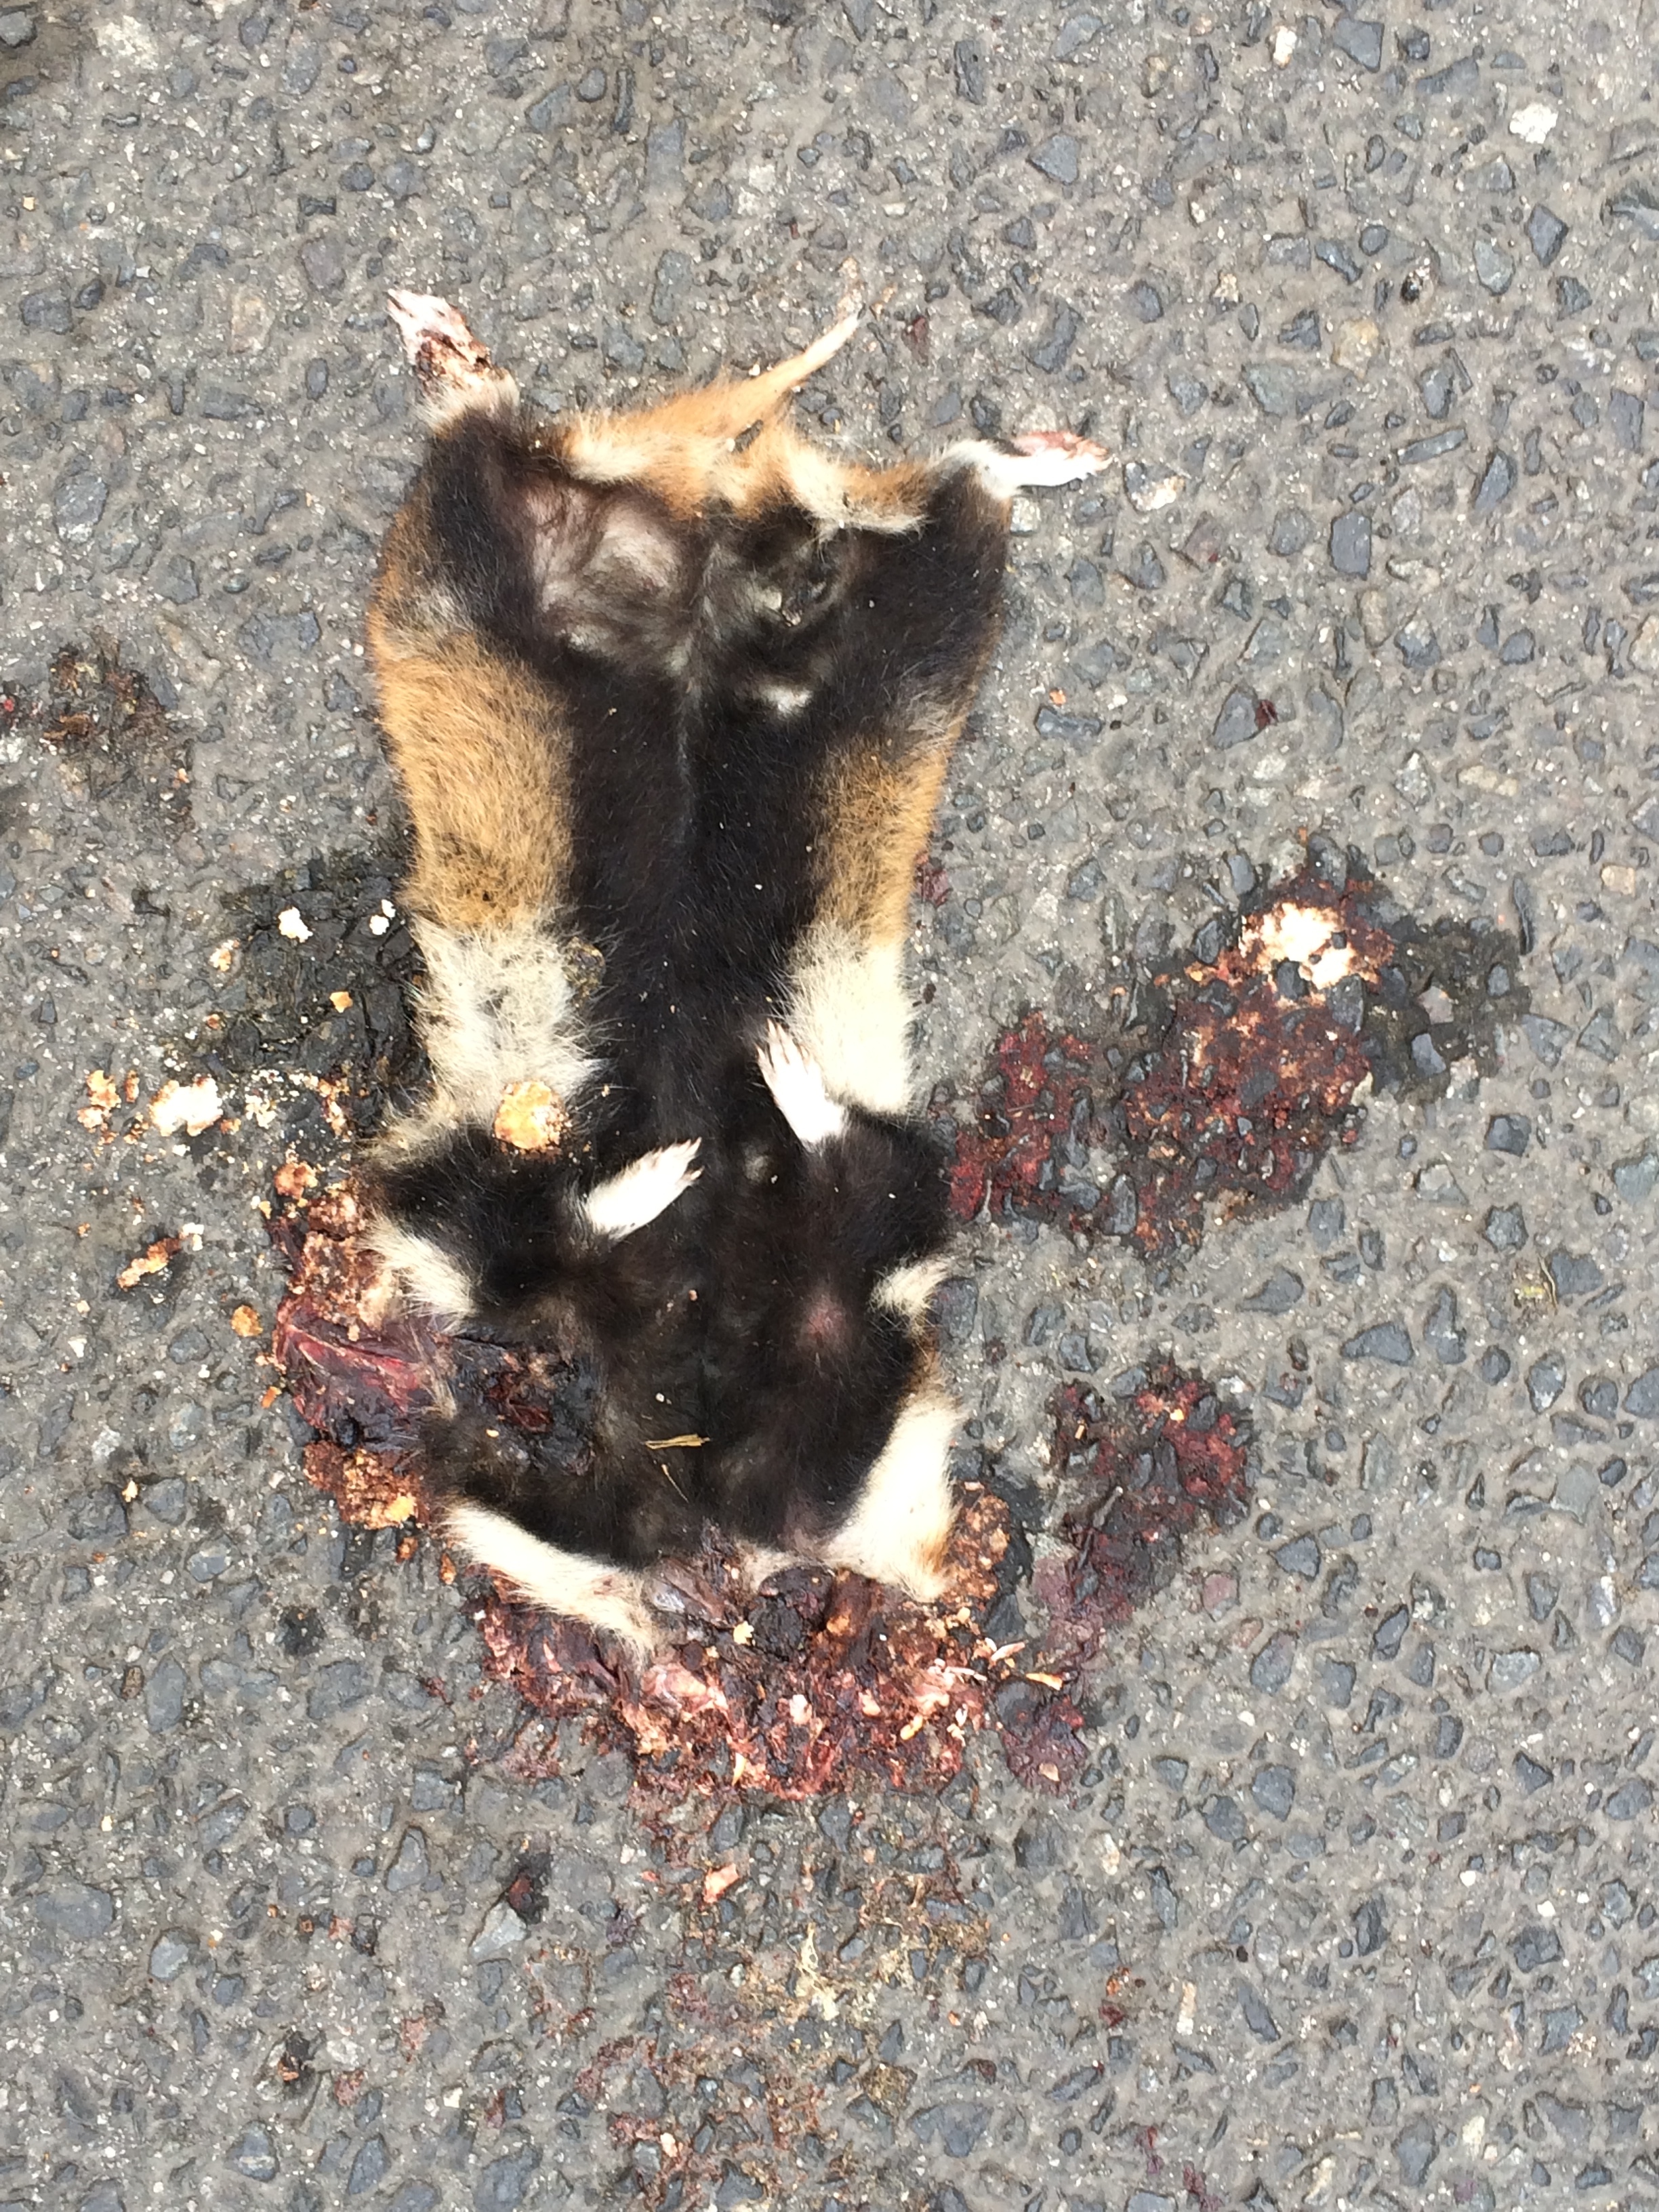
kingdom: Animalia
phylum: Chordata
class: Mammalia
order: Rodentia
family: Cricetidae
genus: Cricetus
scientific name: Cricetus cricetus
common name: Common hamster
